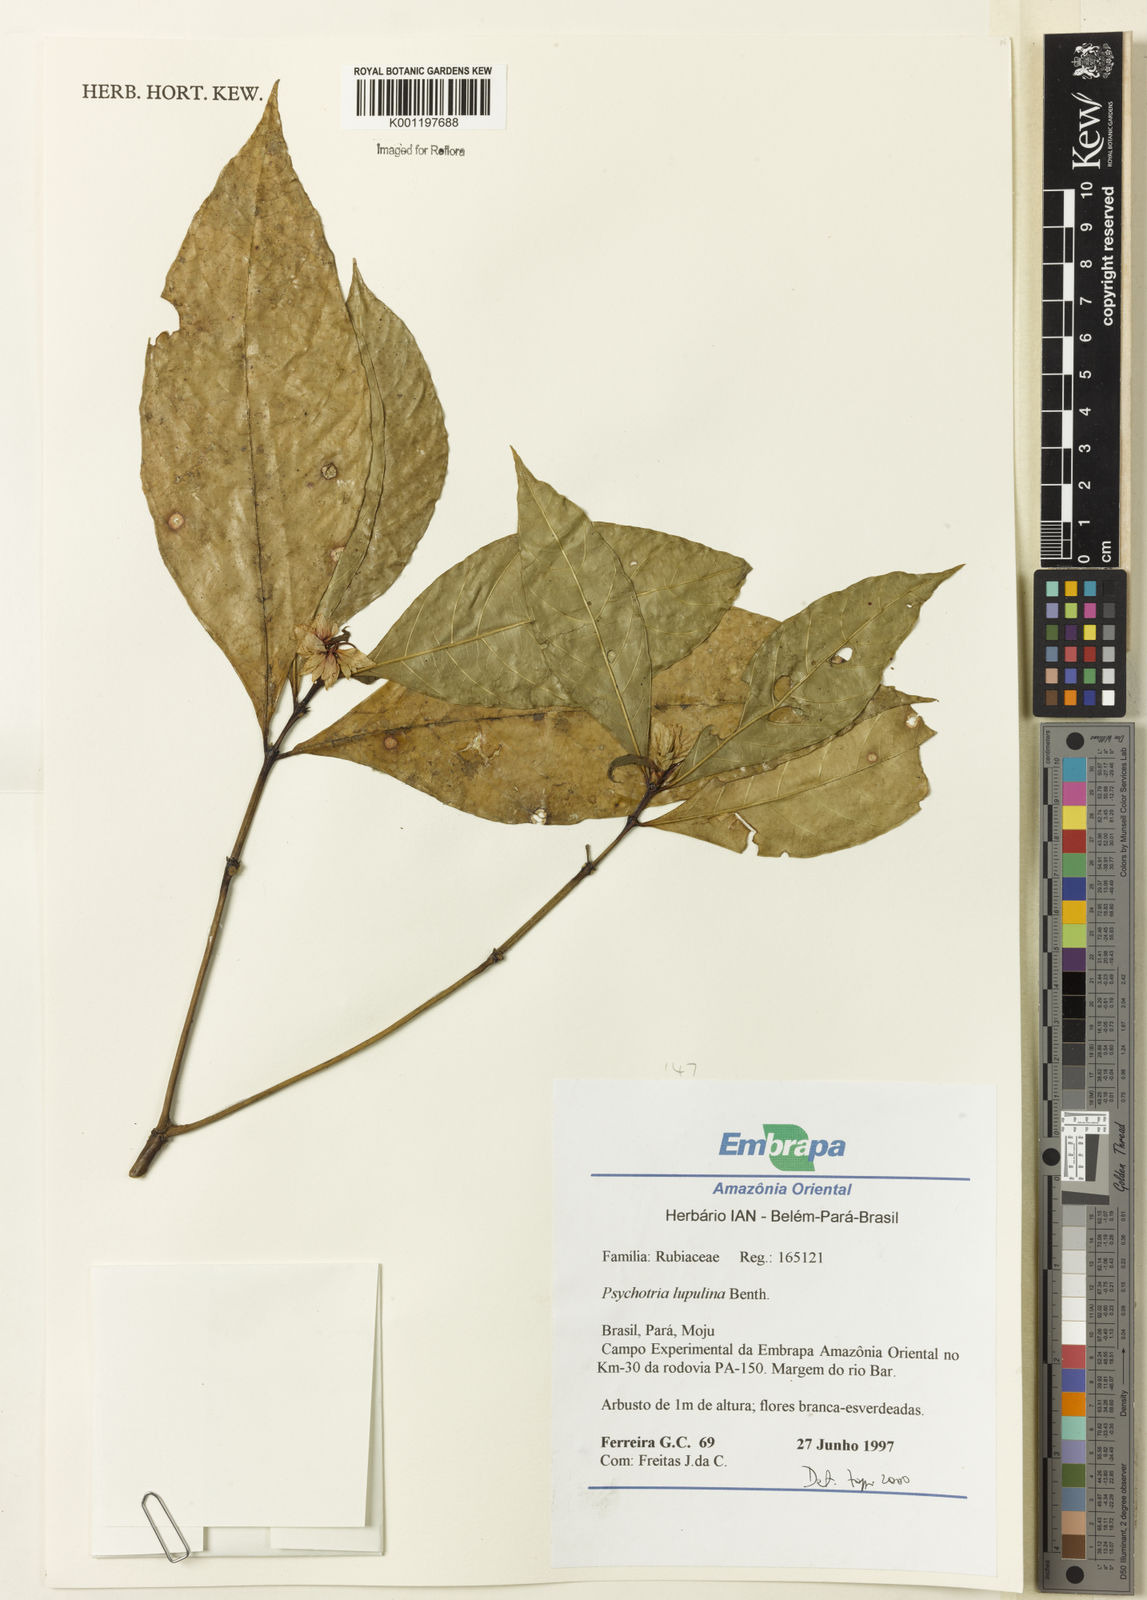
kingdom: Plantae
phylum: Tracheophyta
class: Magnoliopsida
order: Gentianales
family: Rubiaceae
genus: Palicourea
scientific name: Palicourea justiciifolia
